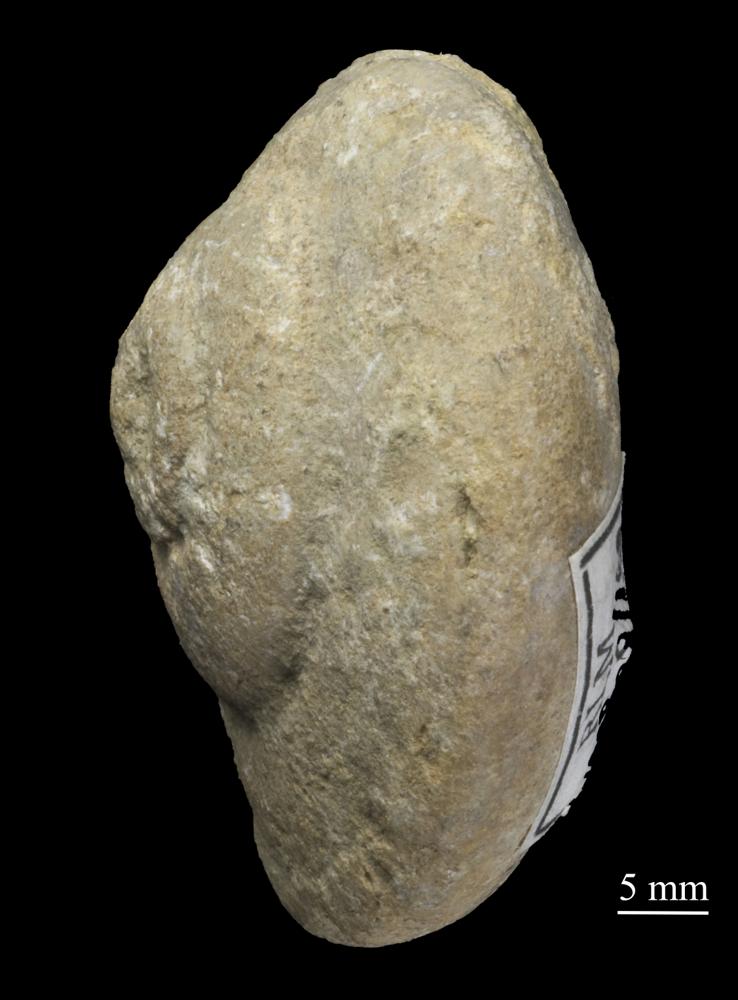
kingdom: Animalia
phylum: Mollusca
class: Gastropoda
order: Trochida
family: Trochidae
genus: Trochus
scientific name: Trochus ellipticus
